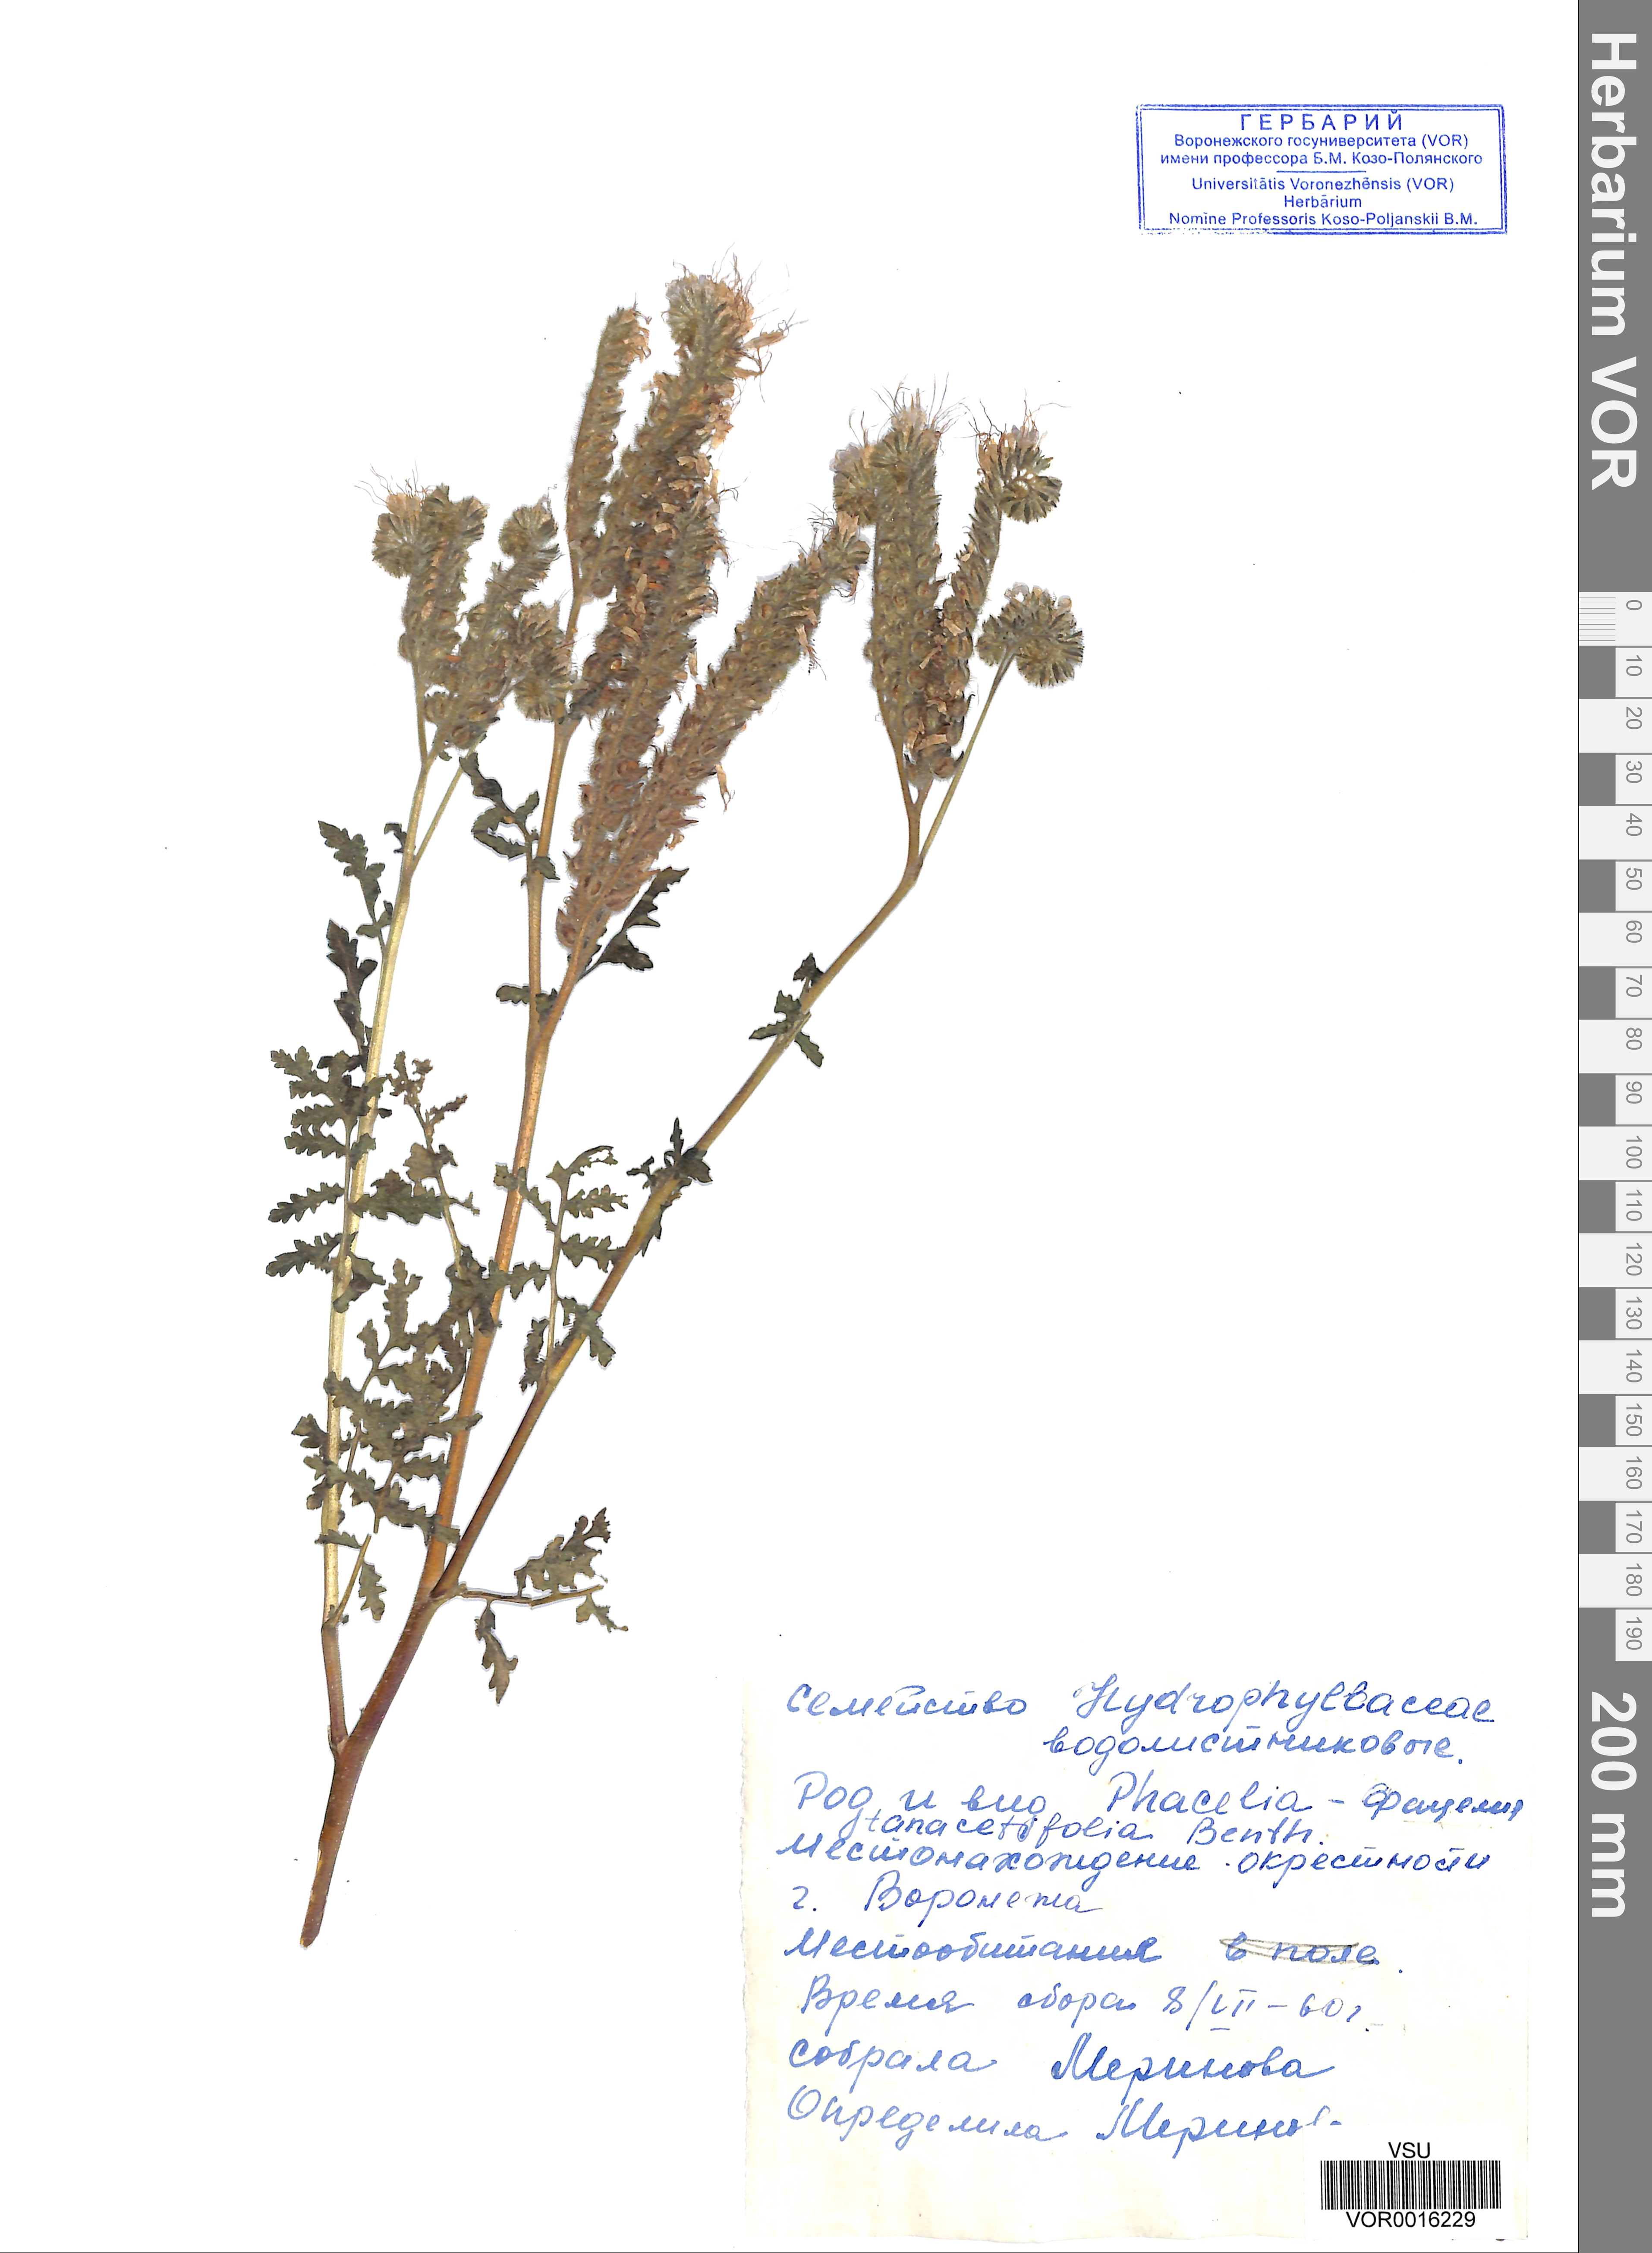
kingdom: Plantae
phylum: Tracheophyta
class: Magnoliopsida
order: Boraginales
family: Hydrophyllaceae
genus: Phacelia
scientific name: Phacelia tanacetifolia
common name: Phacelia
